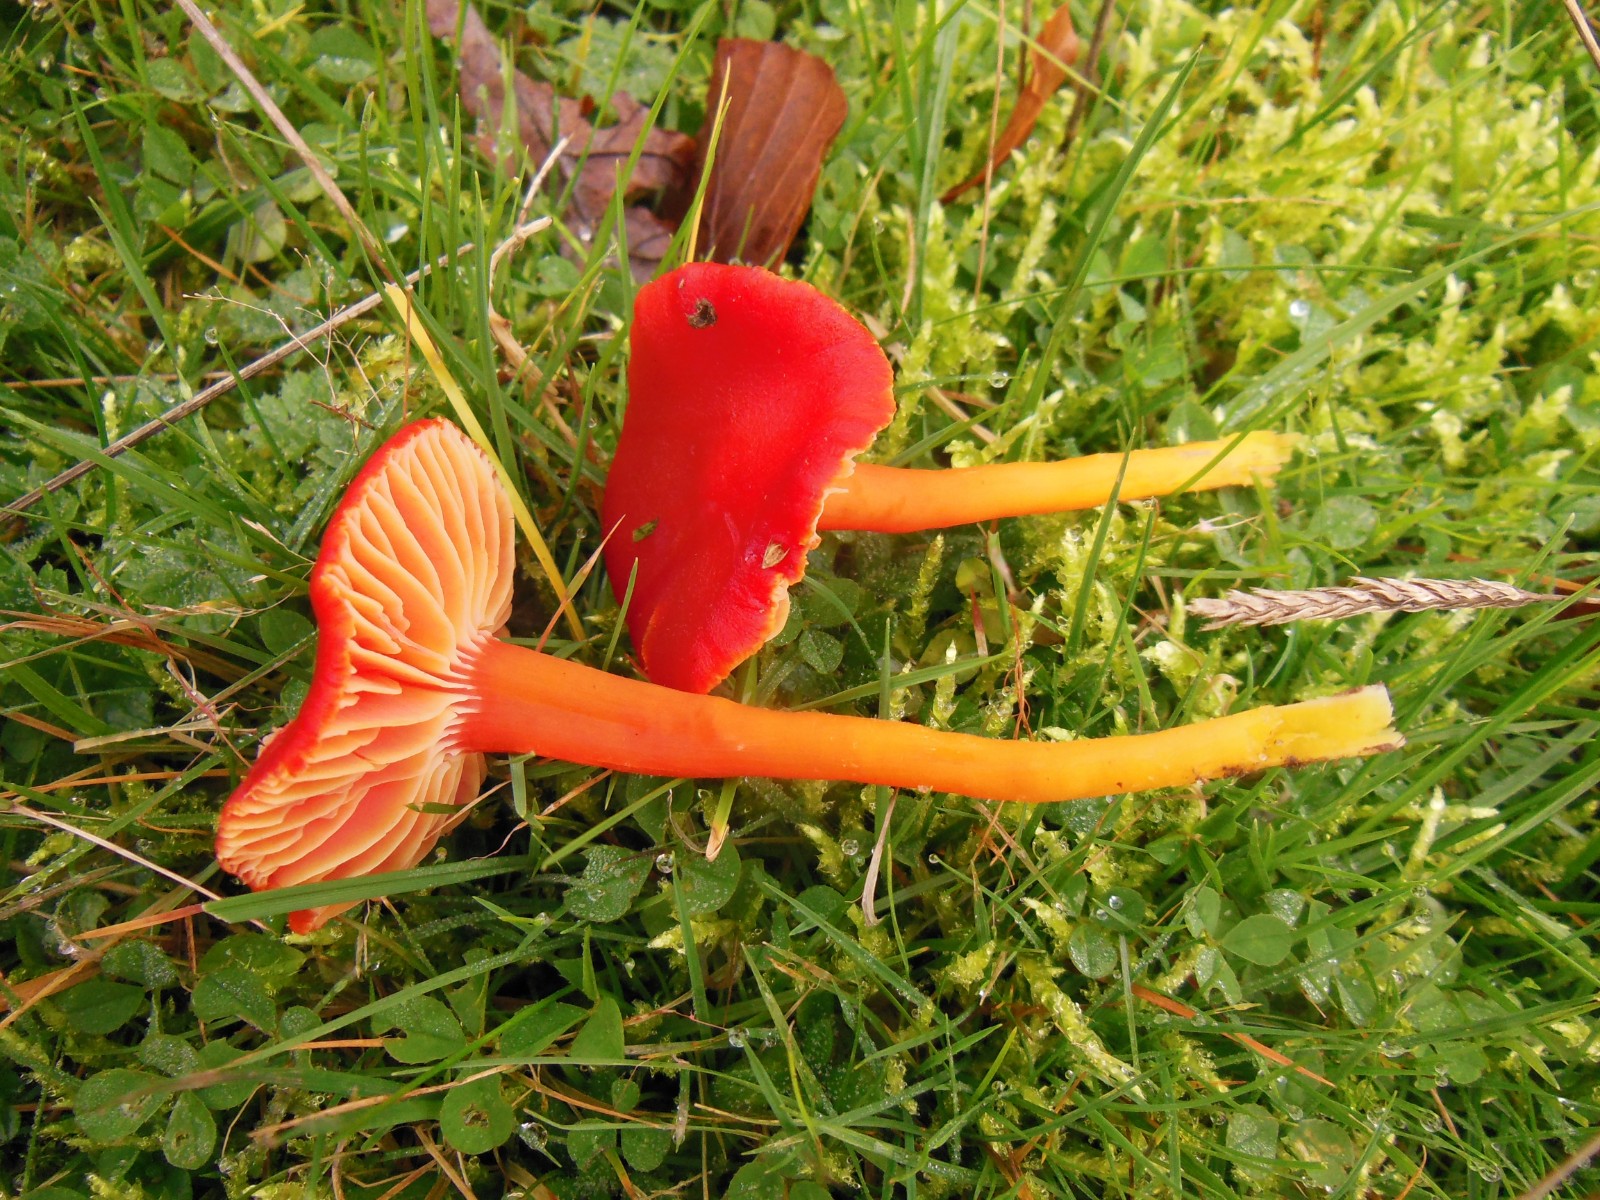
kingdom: Fungi
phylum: Basidiomycota
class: Agaricomycetes
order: Agaricales
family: Hygrophoraceae
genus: Hygrocybe
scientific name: Hygrocybe coccinea
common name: cinnober-vokshat
